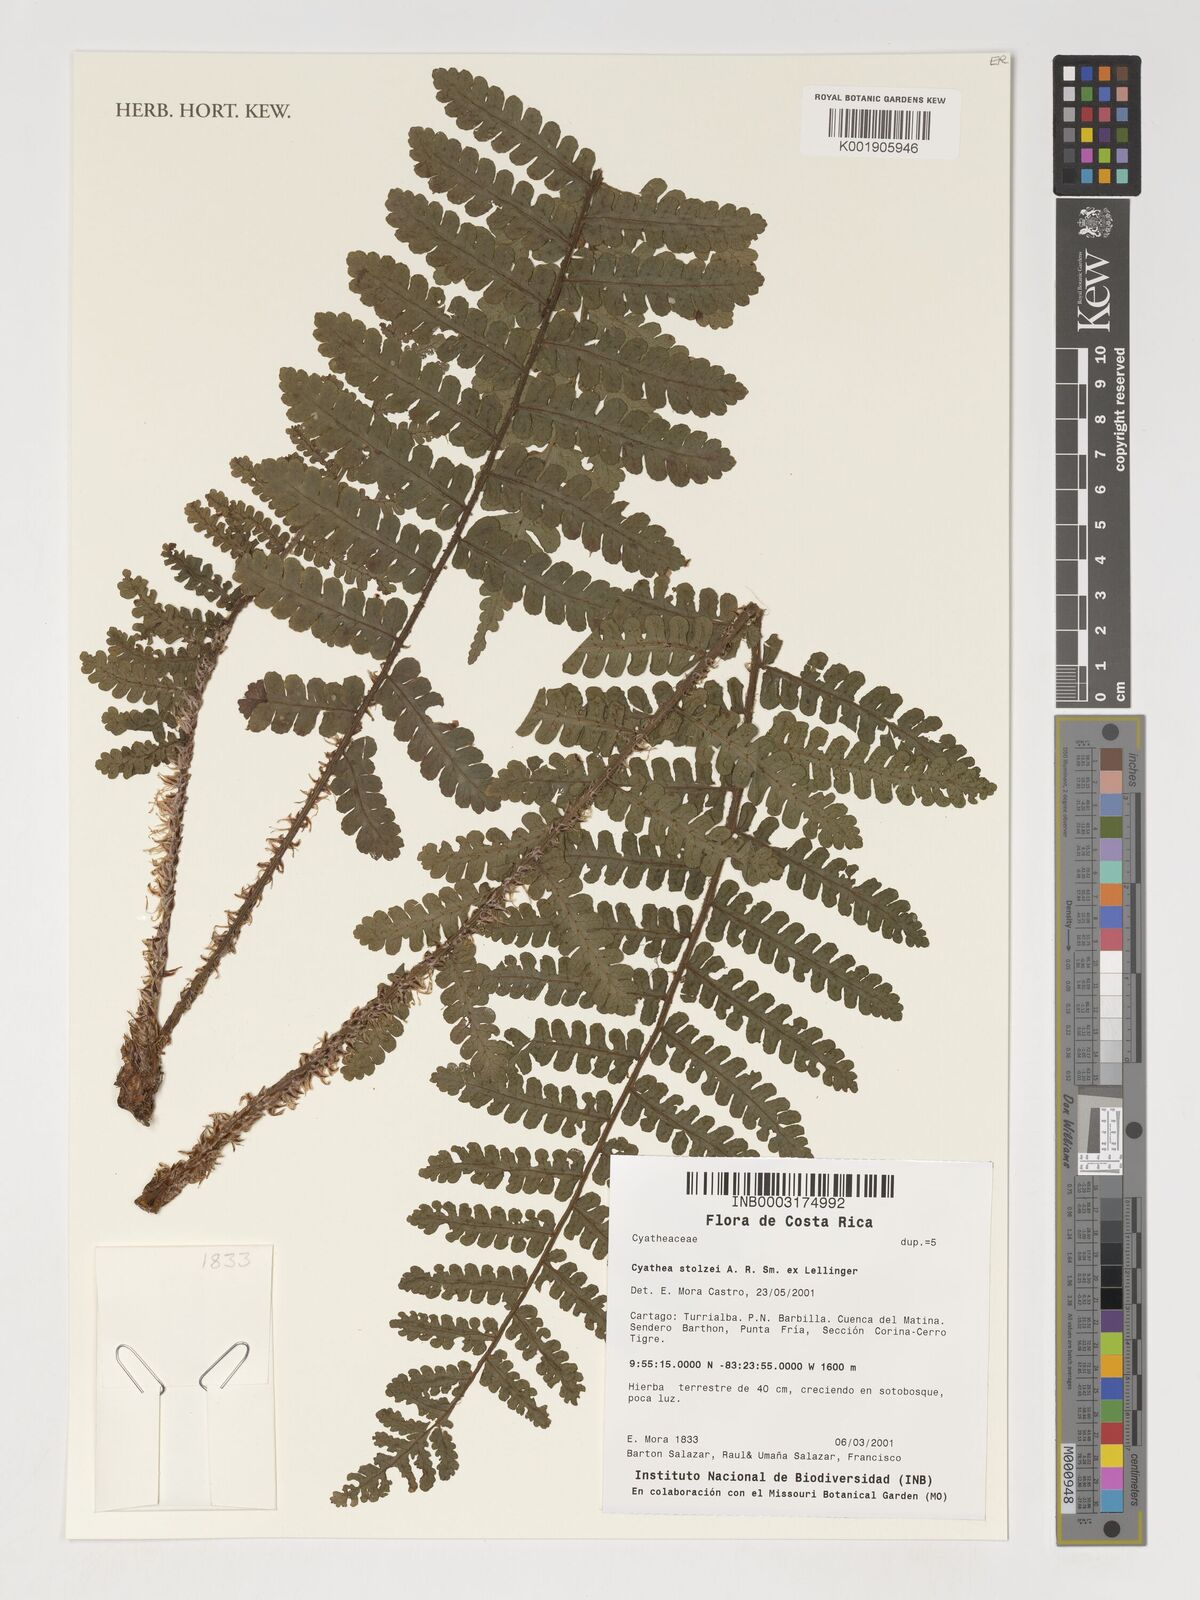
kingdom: Plantae
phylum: Tracheophyta
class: Polypodiopsida
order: Cyatheales
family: Cyatheaceae
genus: Cyathea
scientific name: Cyathea stolzei
